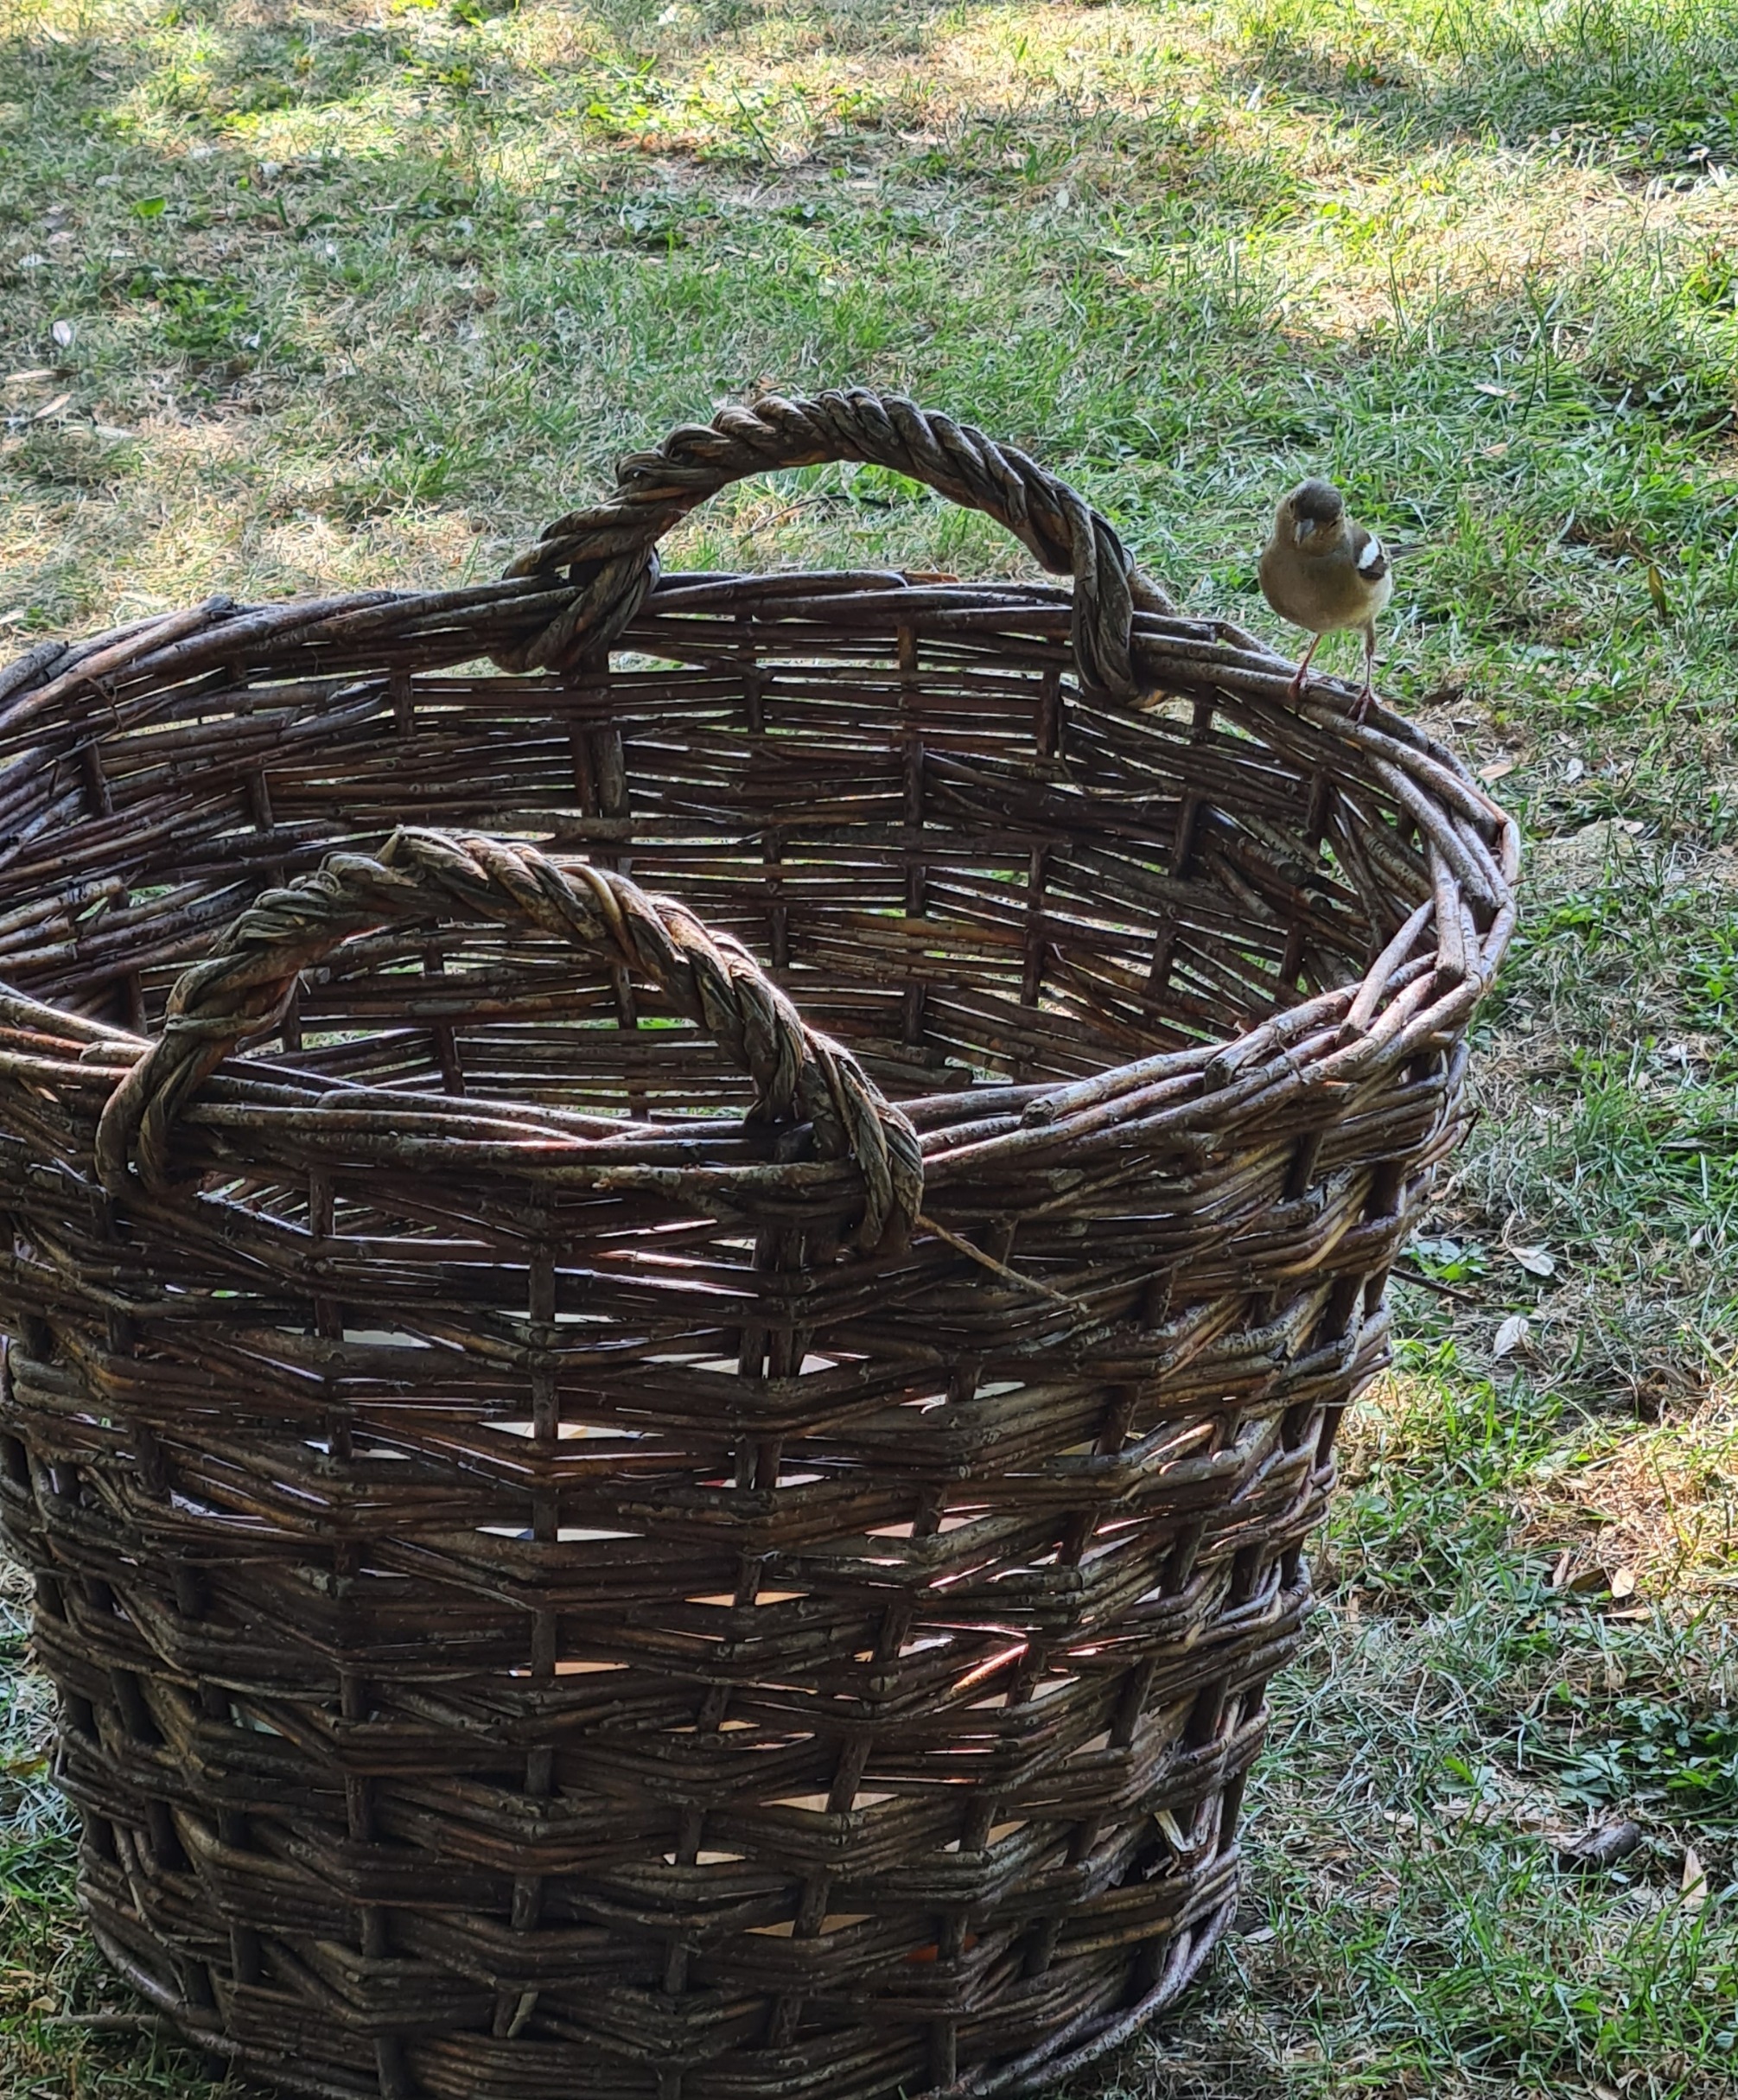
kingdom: Animalia
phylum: Chordata
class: Aves
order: Passeriformes
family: Fringillidae
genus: Fringilla
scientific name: Fringilla coelebs
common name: Bogfinke
